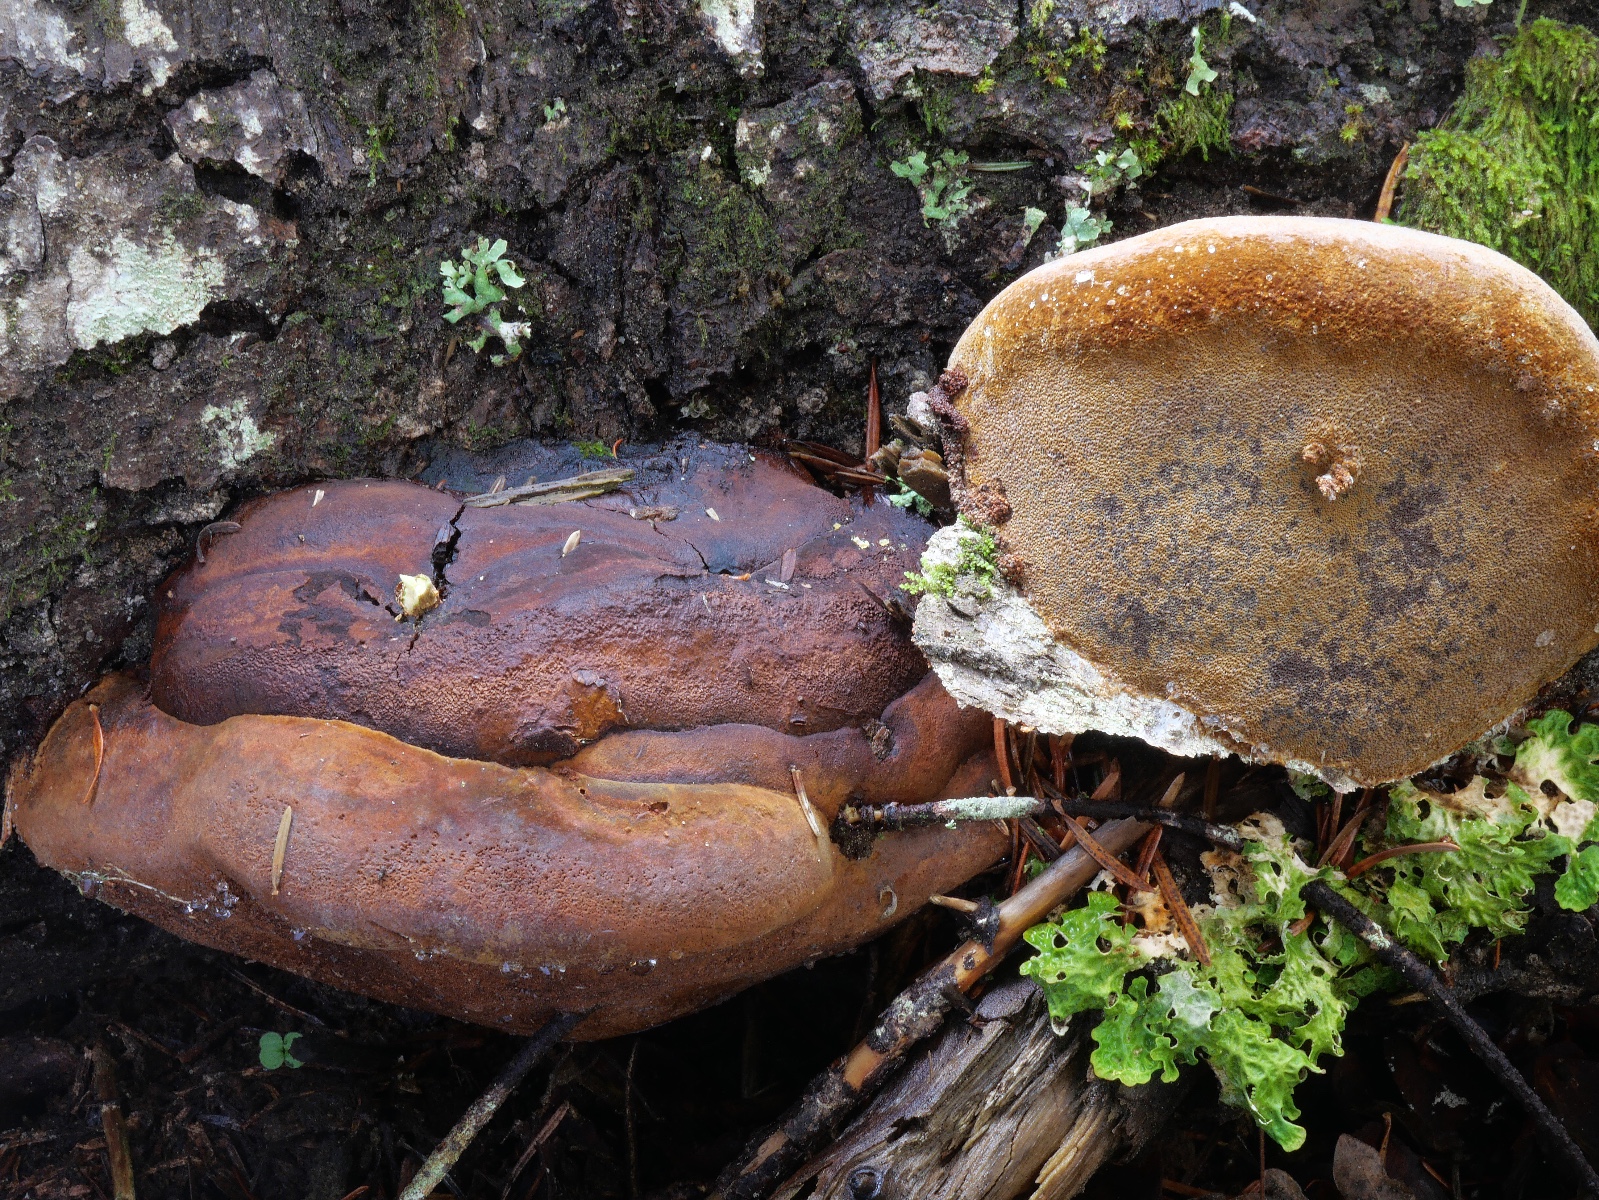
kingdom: Fungi
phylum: Basidiomycota
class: Agaricomycetes
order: Hymenochaetales
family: Hymenochaetaceae
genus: Phellinus
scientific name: Phellinus hartigii
